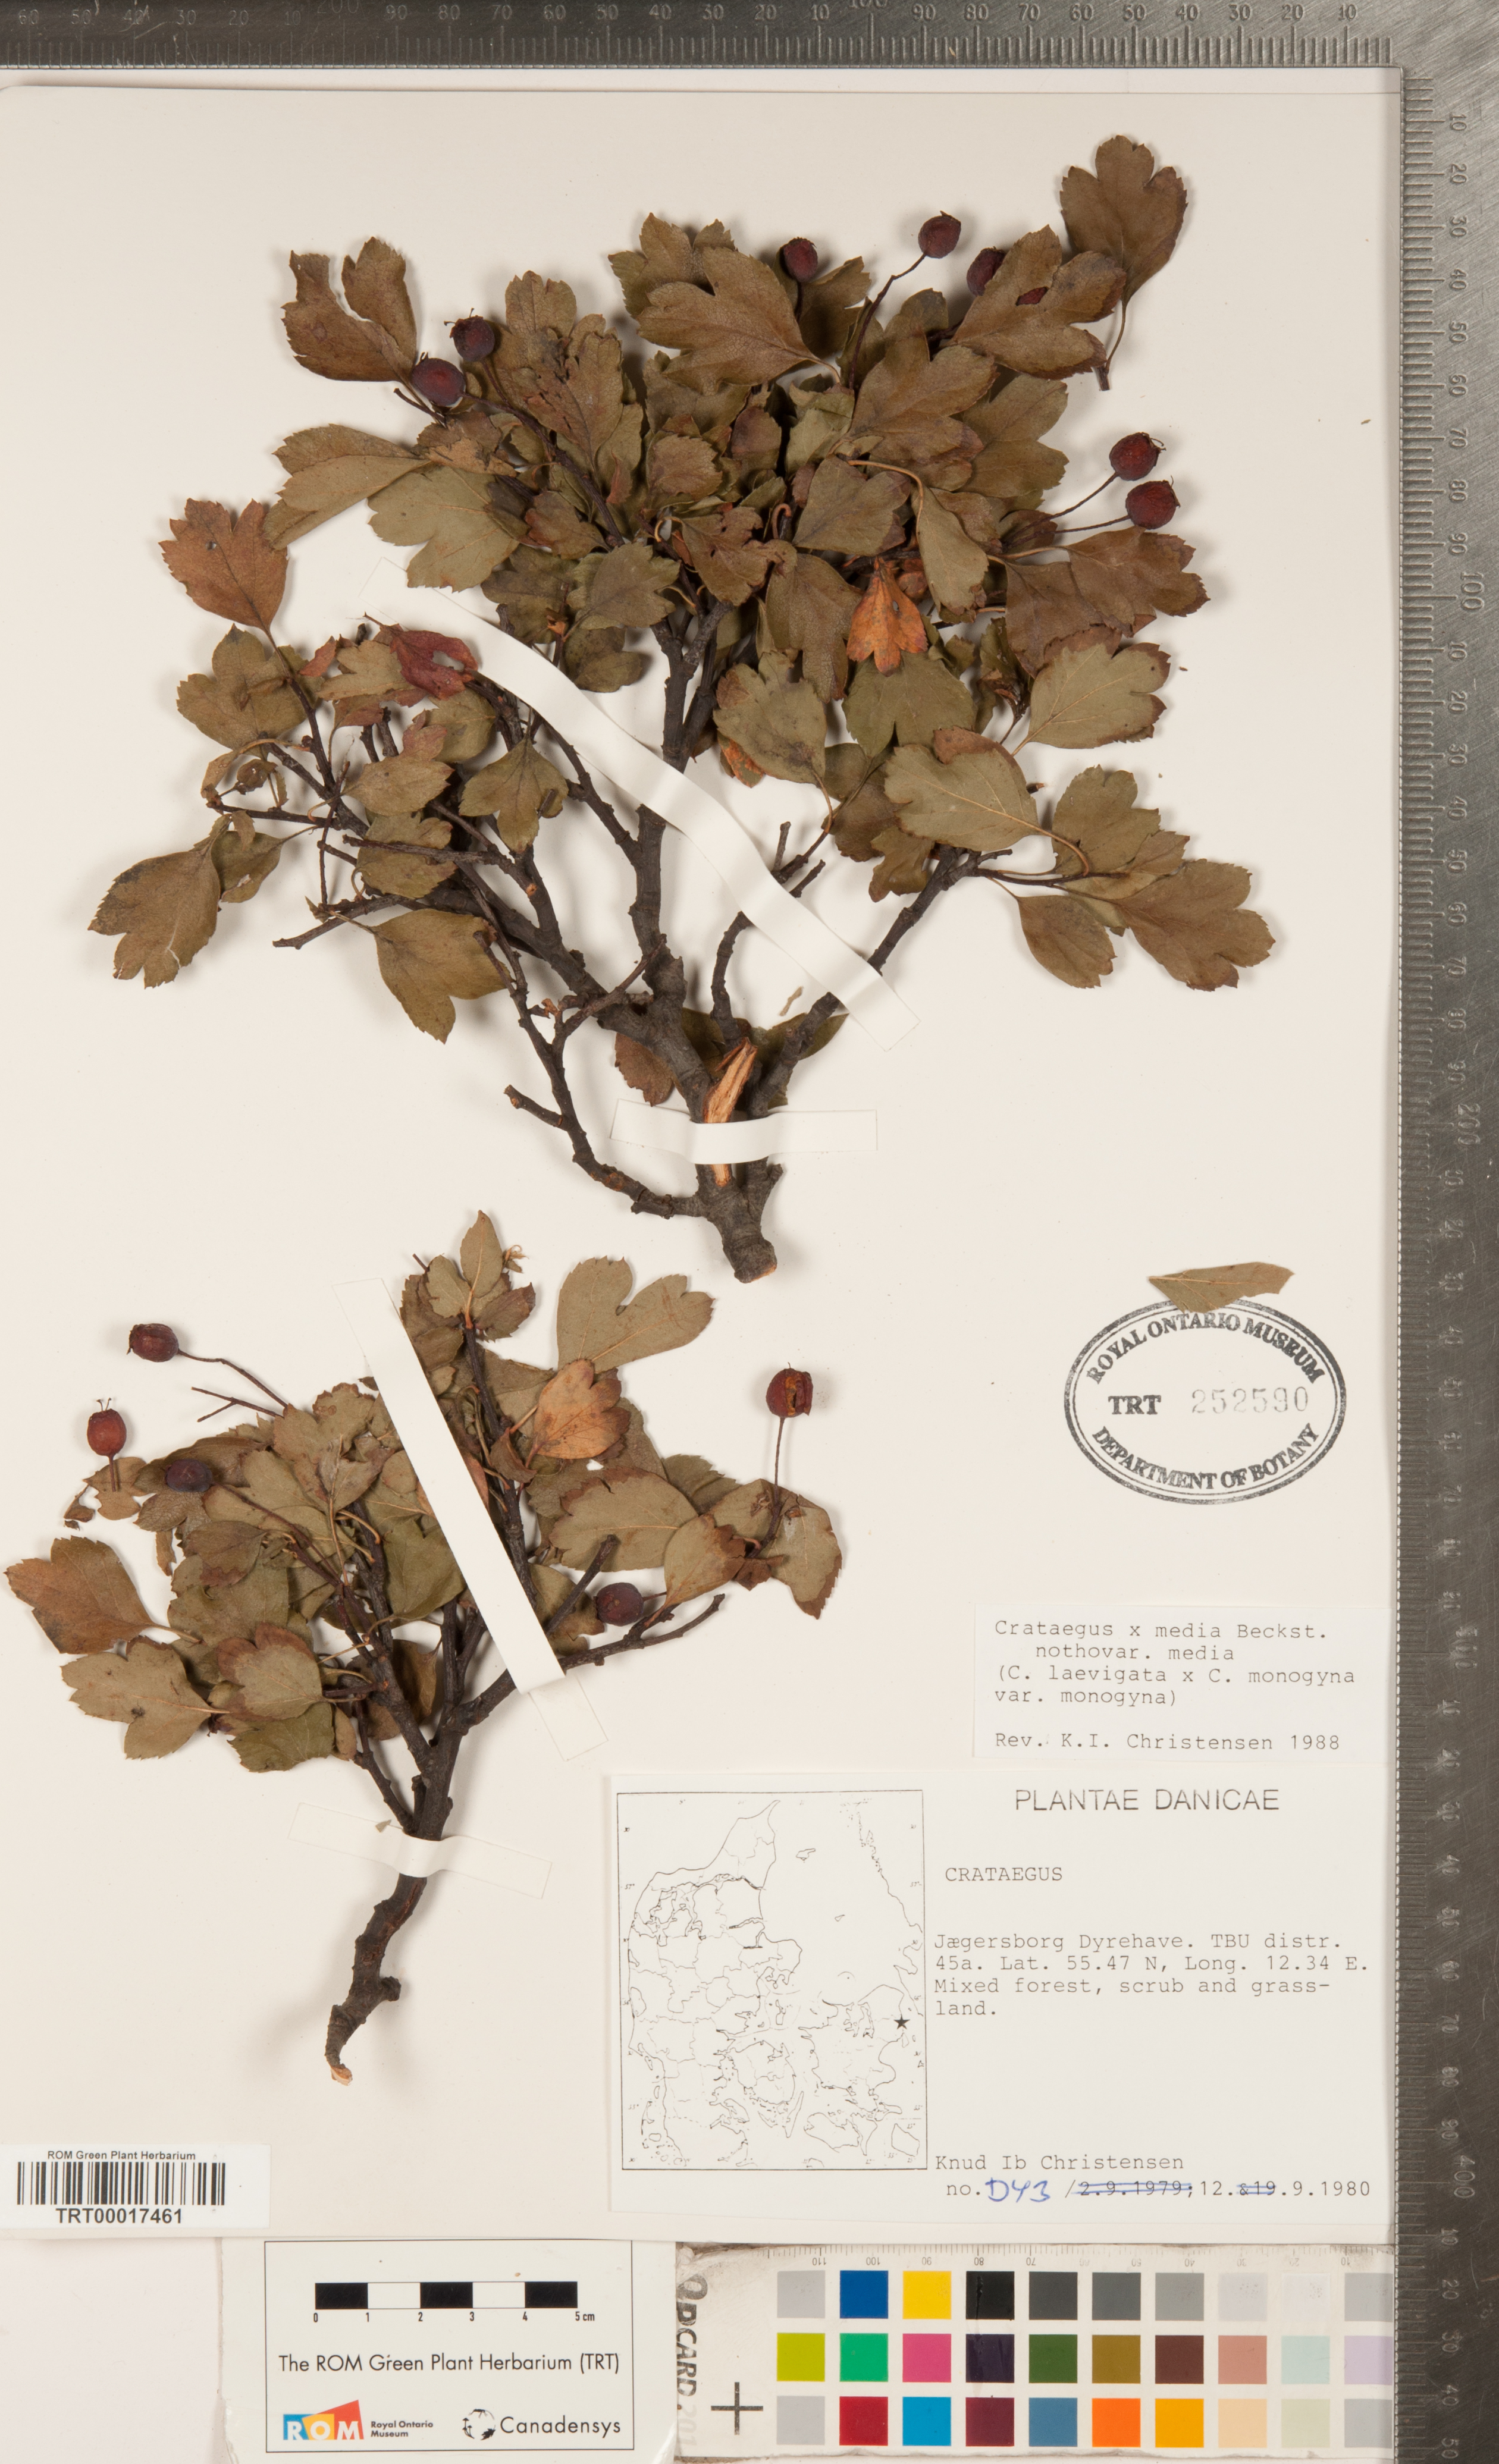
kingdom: Plantae
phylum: Tracheophyta
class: Magnoliopsida
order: Rosales
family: Rosaceae
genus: Crataegus
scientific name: Crataegus media
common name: Intermediate hawthorn
